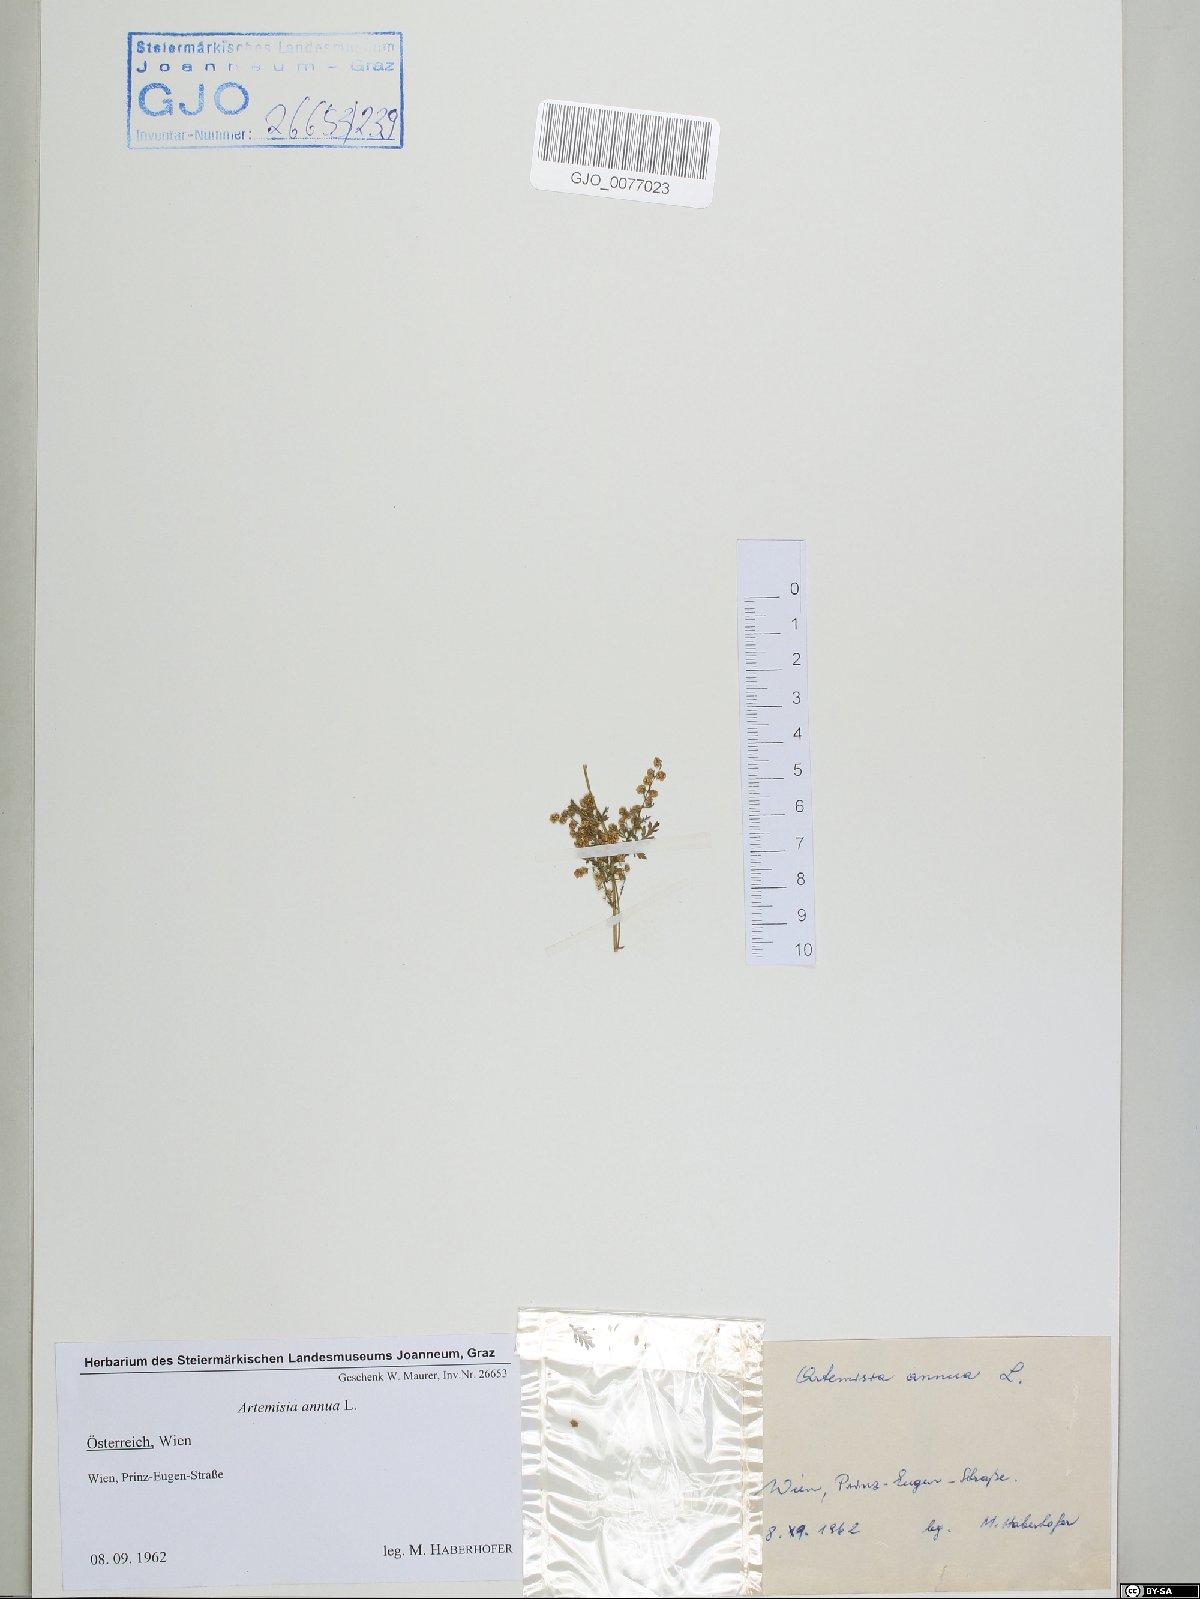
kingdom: Plantae
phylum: Tracheophyta
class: Magnoliopsida
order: Asterales
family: Asteraceae
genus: Artemisia
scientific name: Artemisia annua
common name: Sweet sagewort
